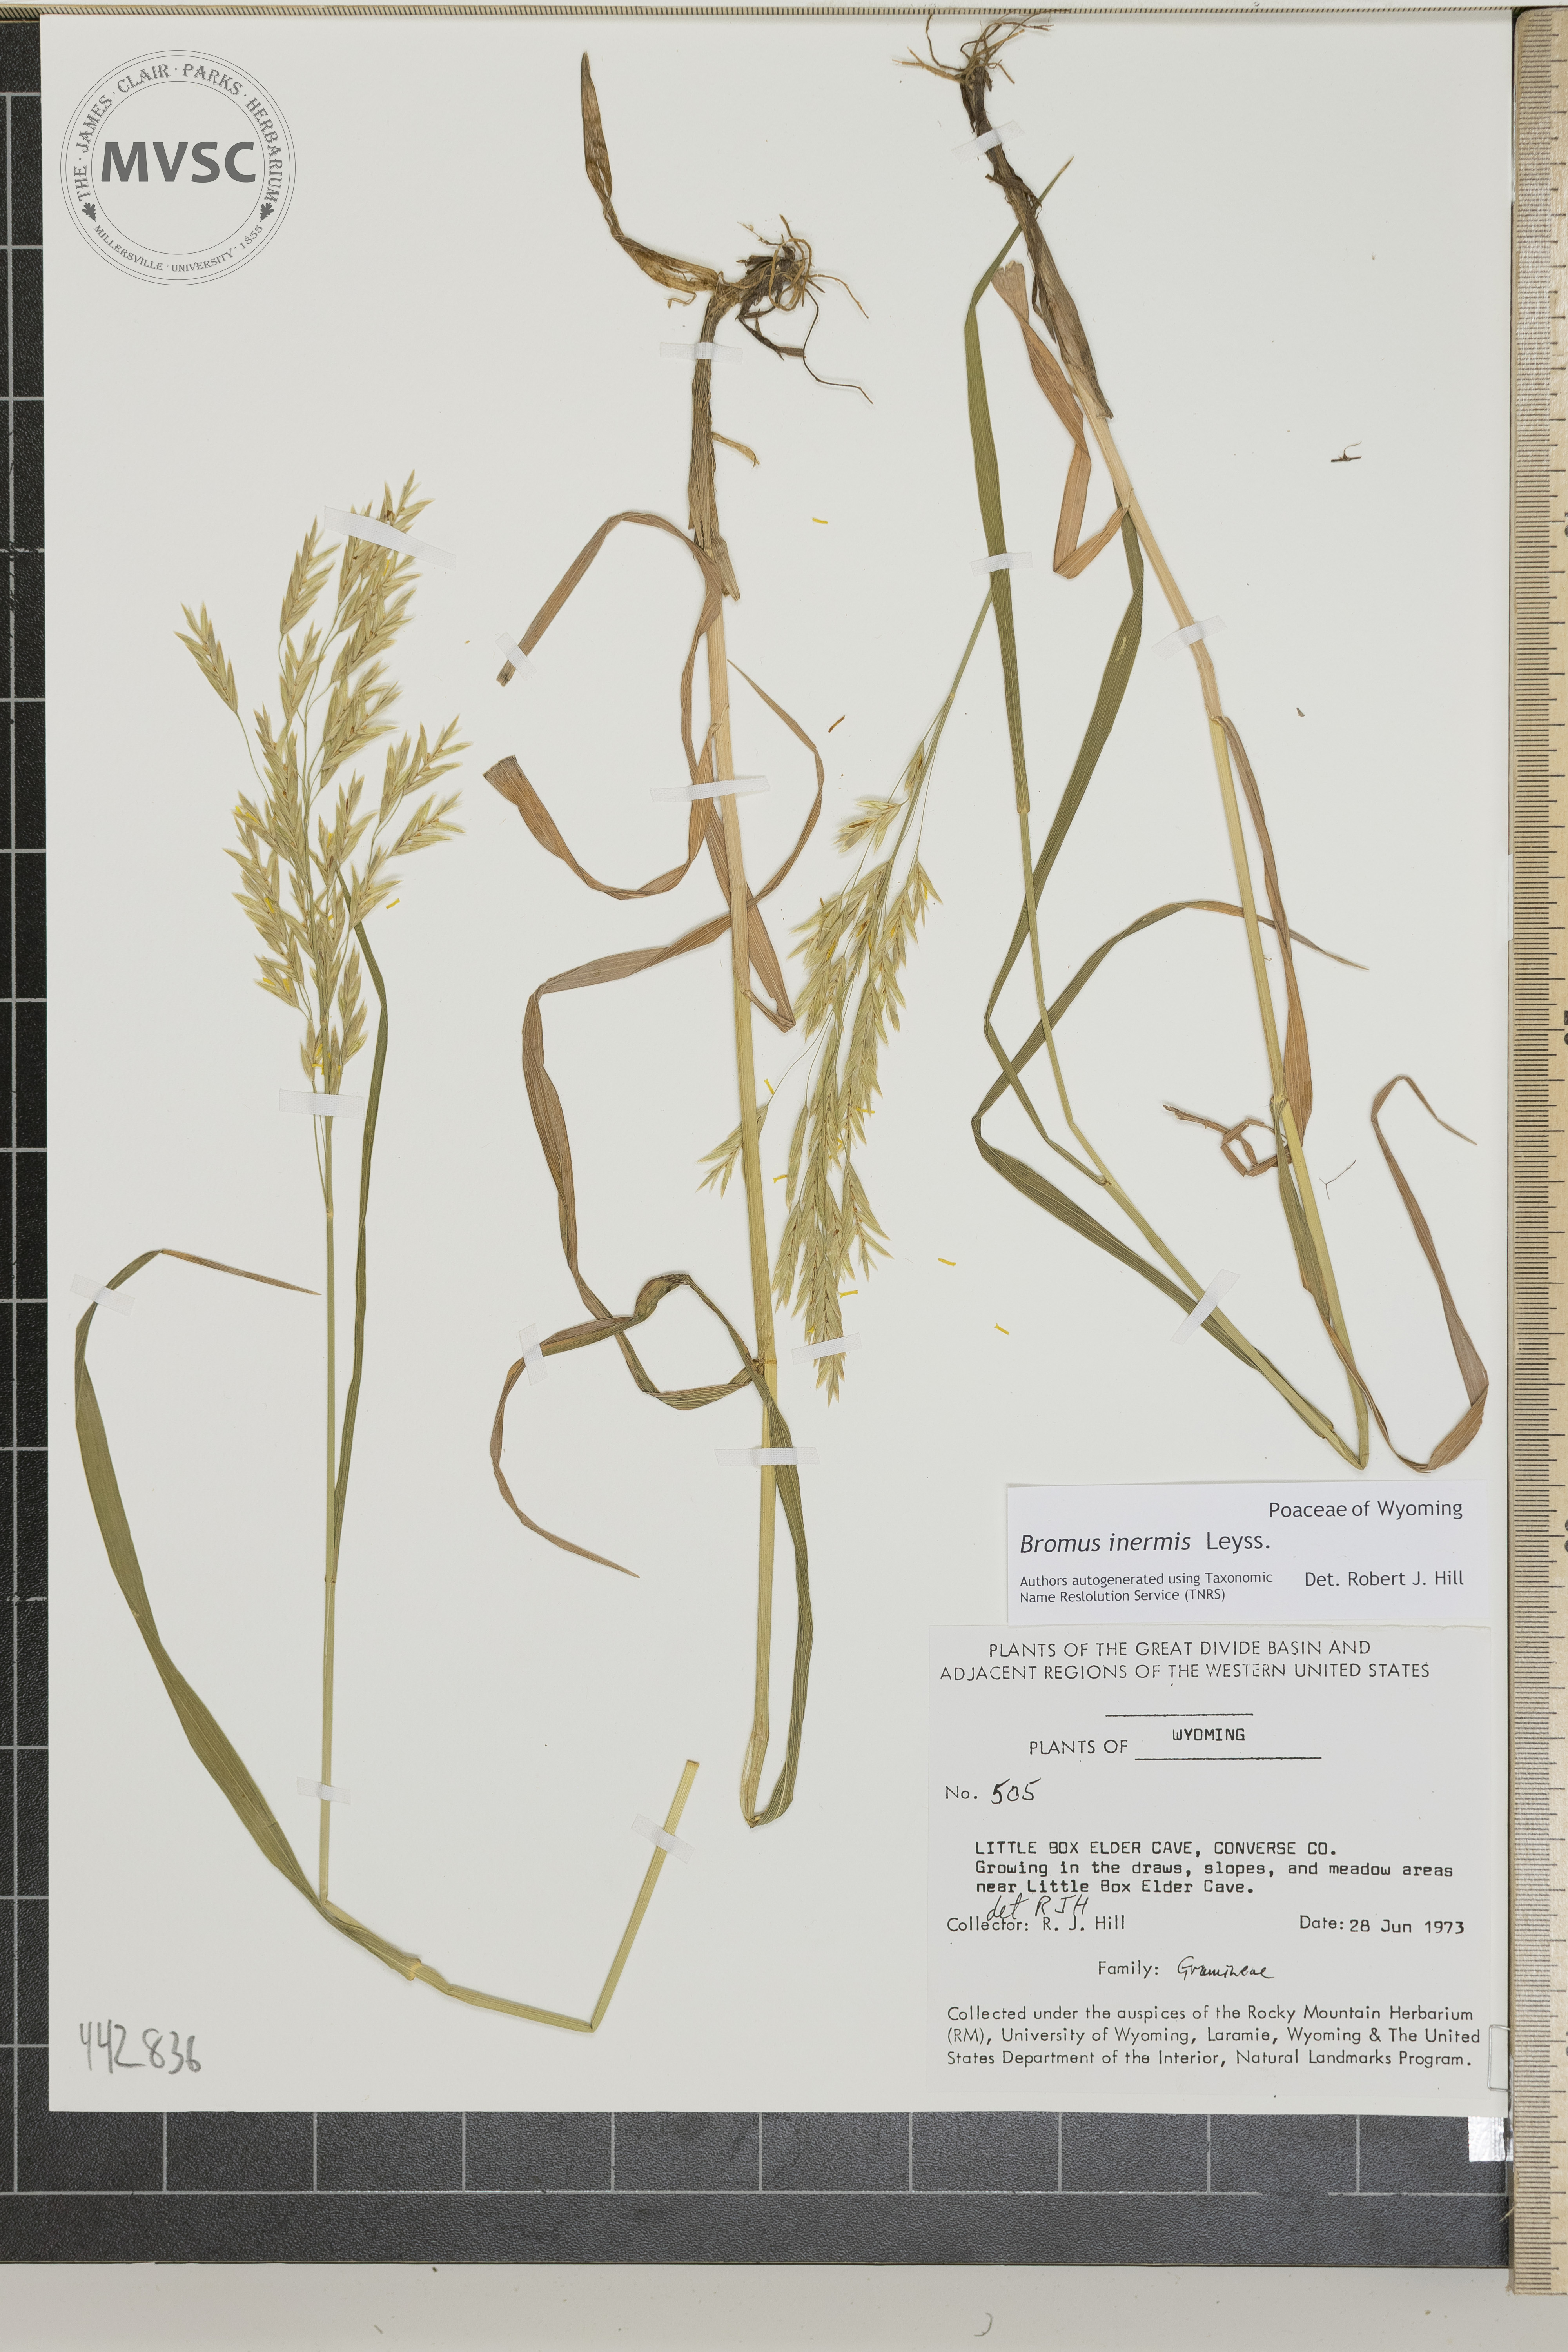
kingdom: Plantae
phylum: Tracheophyta
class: Liliopsida
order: Poales
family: Poaceae
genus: Bromus
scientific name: Bromus inermis
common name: Smooth brome
